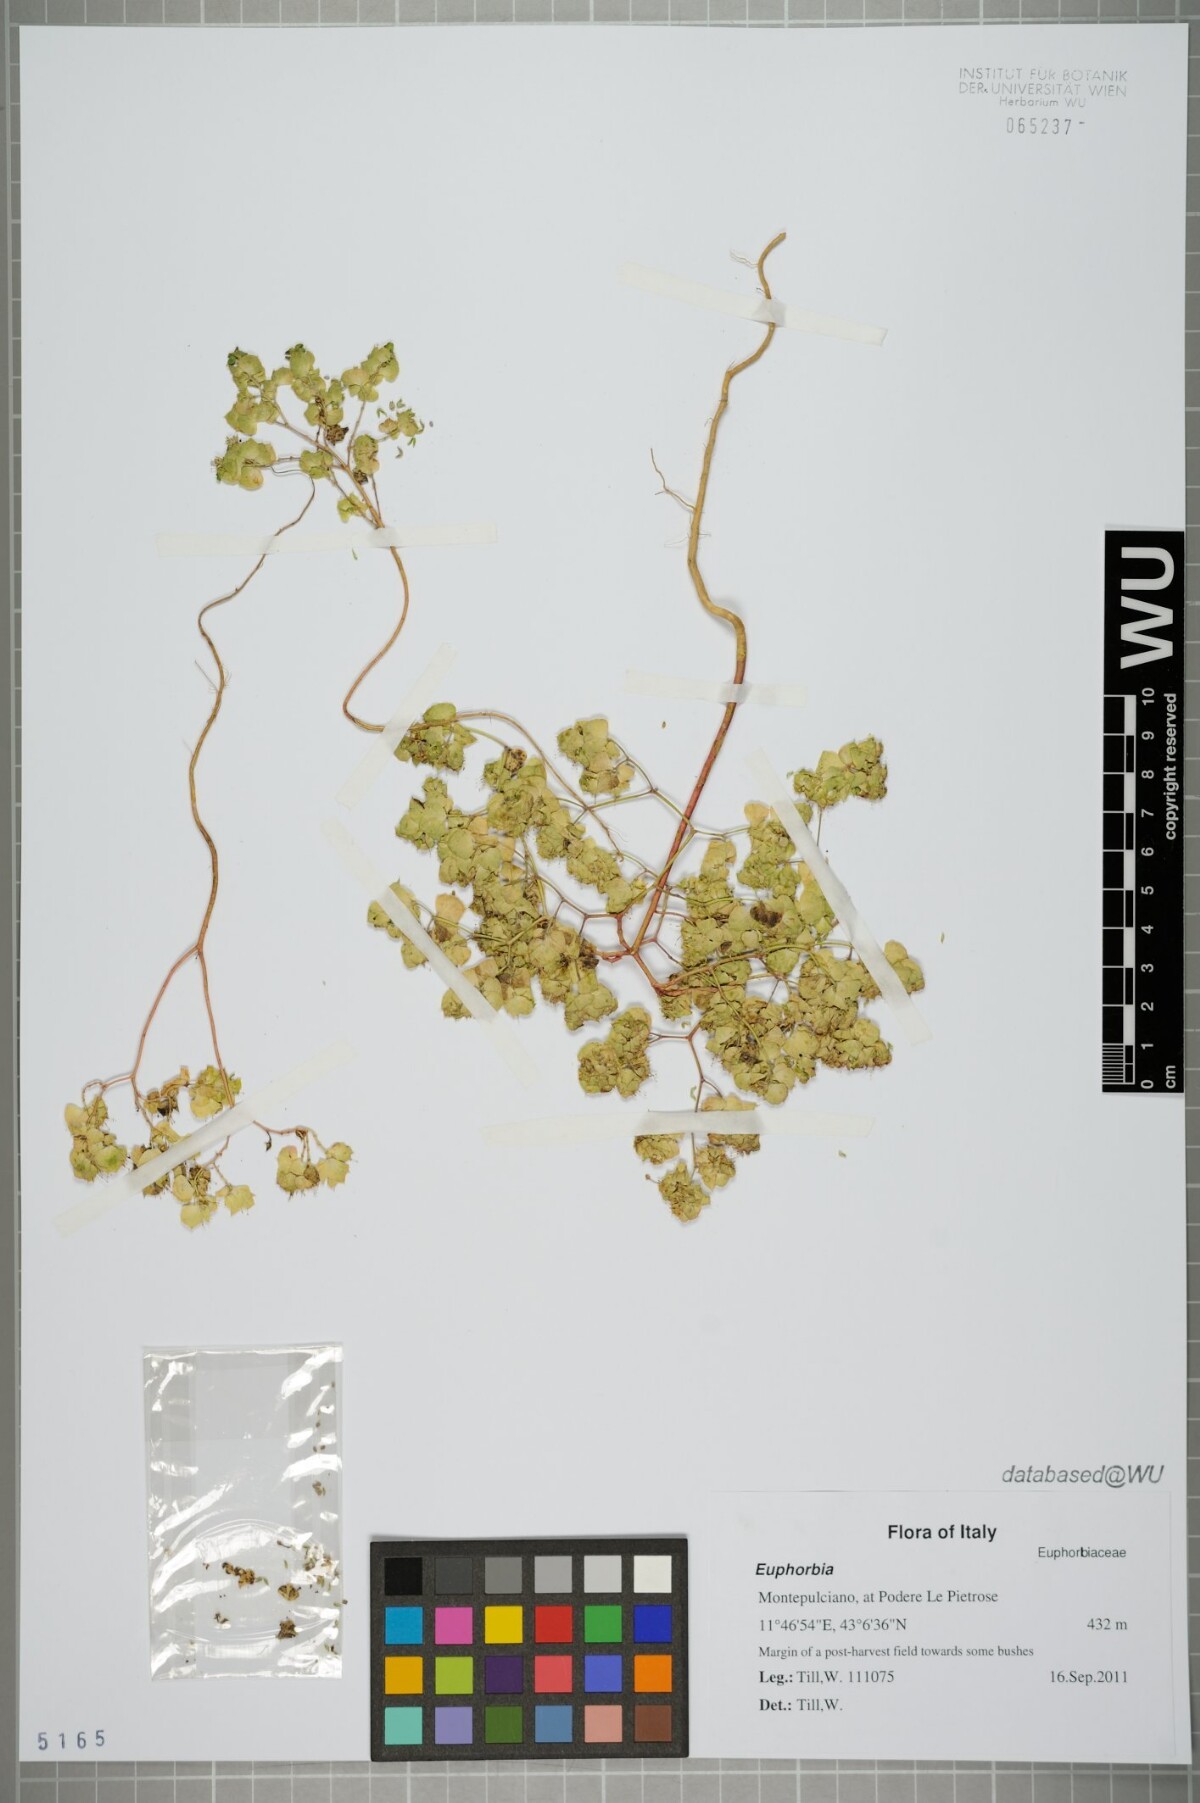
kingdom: Plantae
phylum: Tracheophyta
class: Magnoliopsida
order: Malpighiales
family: Euphorbiaceae
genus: Euphorbia
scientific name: Euphorbia
